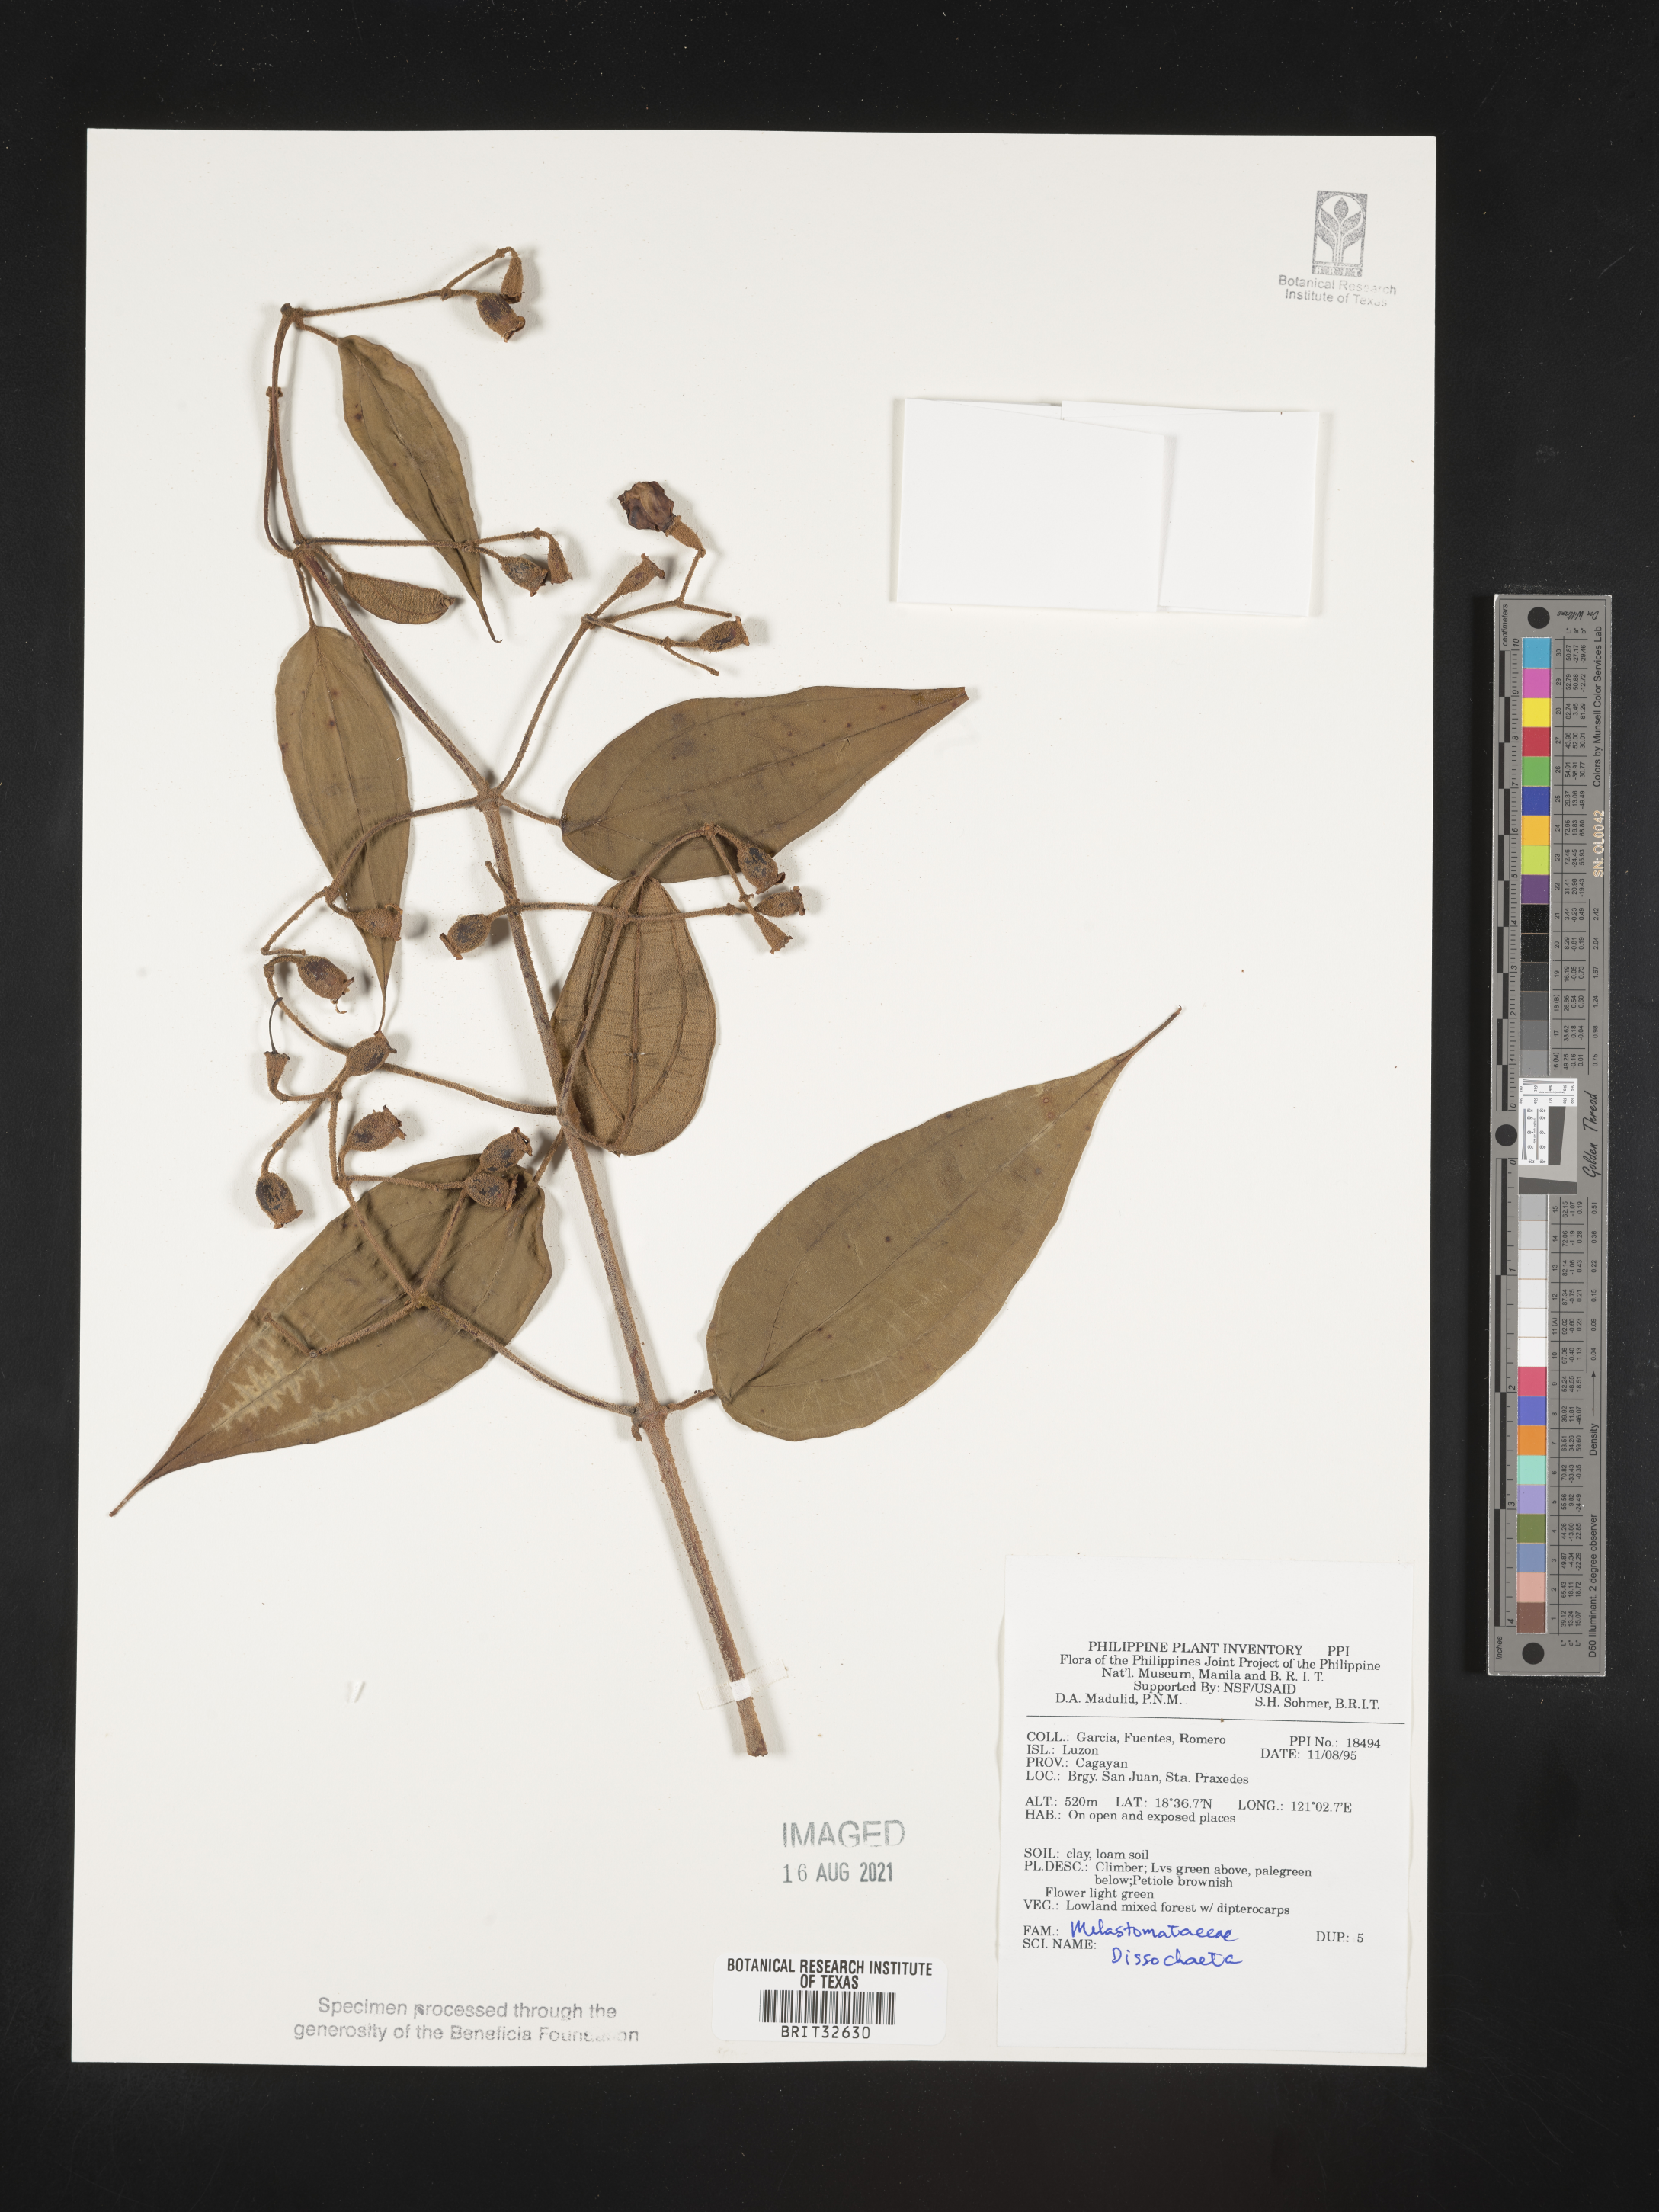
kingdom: Plantae
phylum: Tracheophyta
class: Magnoliopsida
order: Myrtales
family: Melastomataceae
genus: Dissochaeta
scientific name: Dissochaeta
